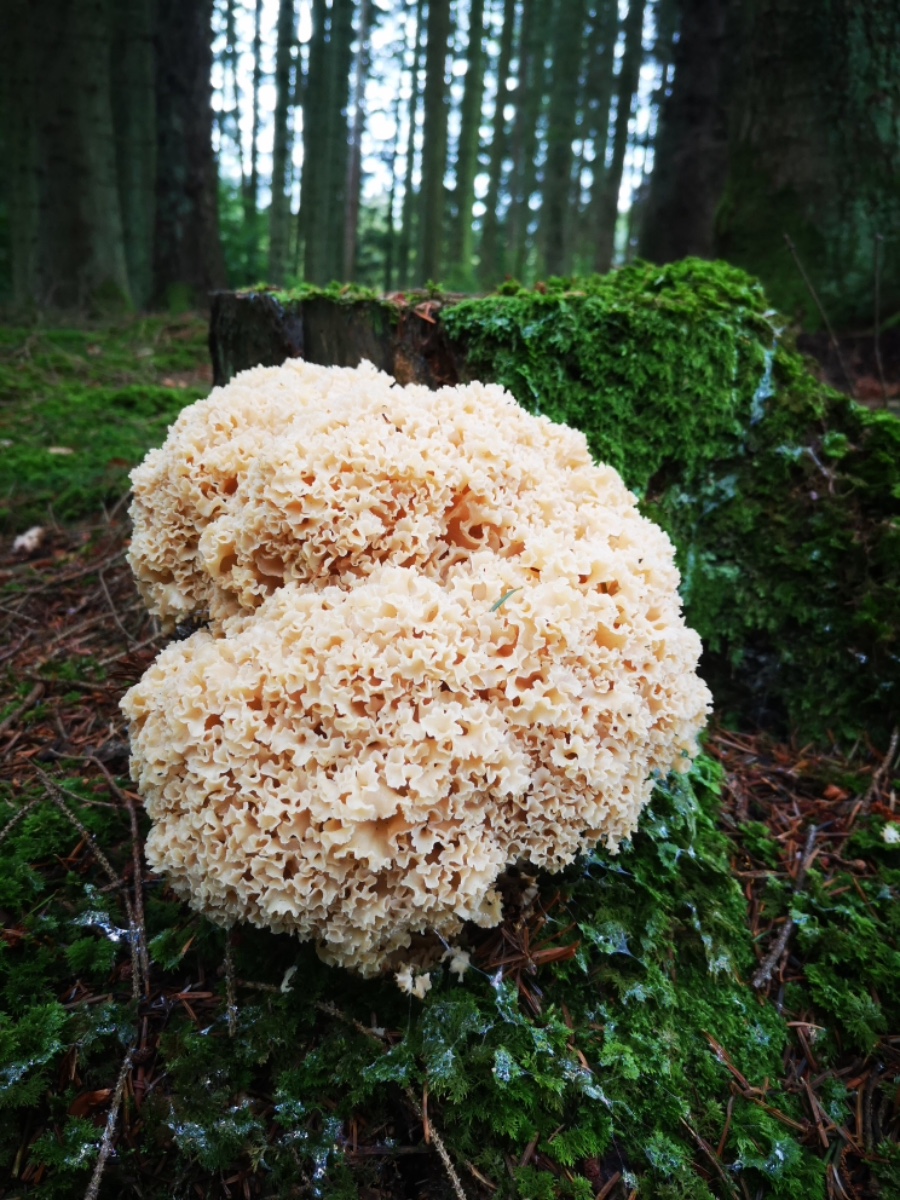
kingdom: Fungi
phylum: Basidiomycota
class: Agaricomycetes
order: Polyporales
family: Sparassidaceae
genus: Sparassis
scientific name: Sparassis crispa
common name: kruset blomkålssvamp
